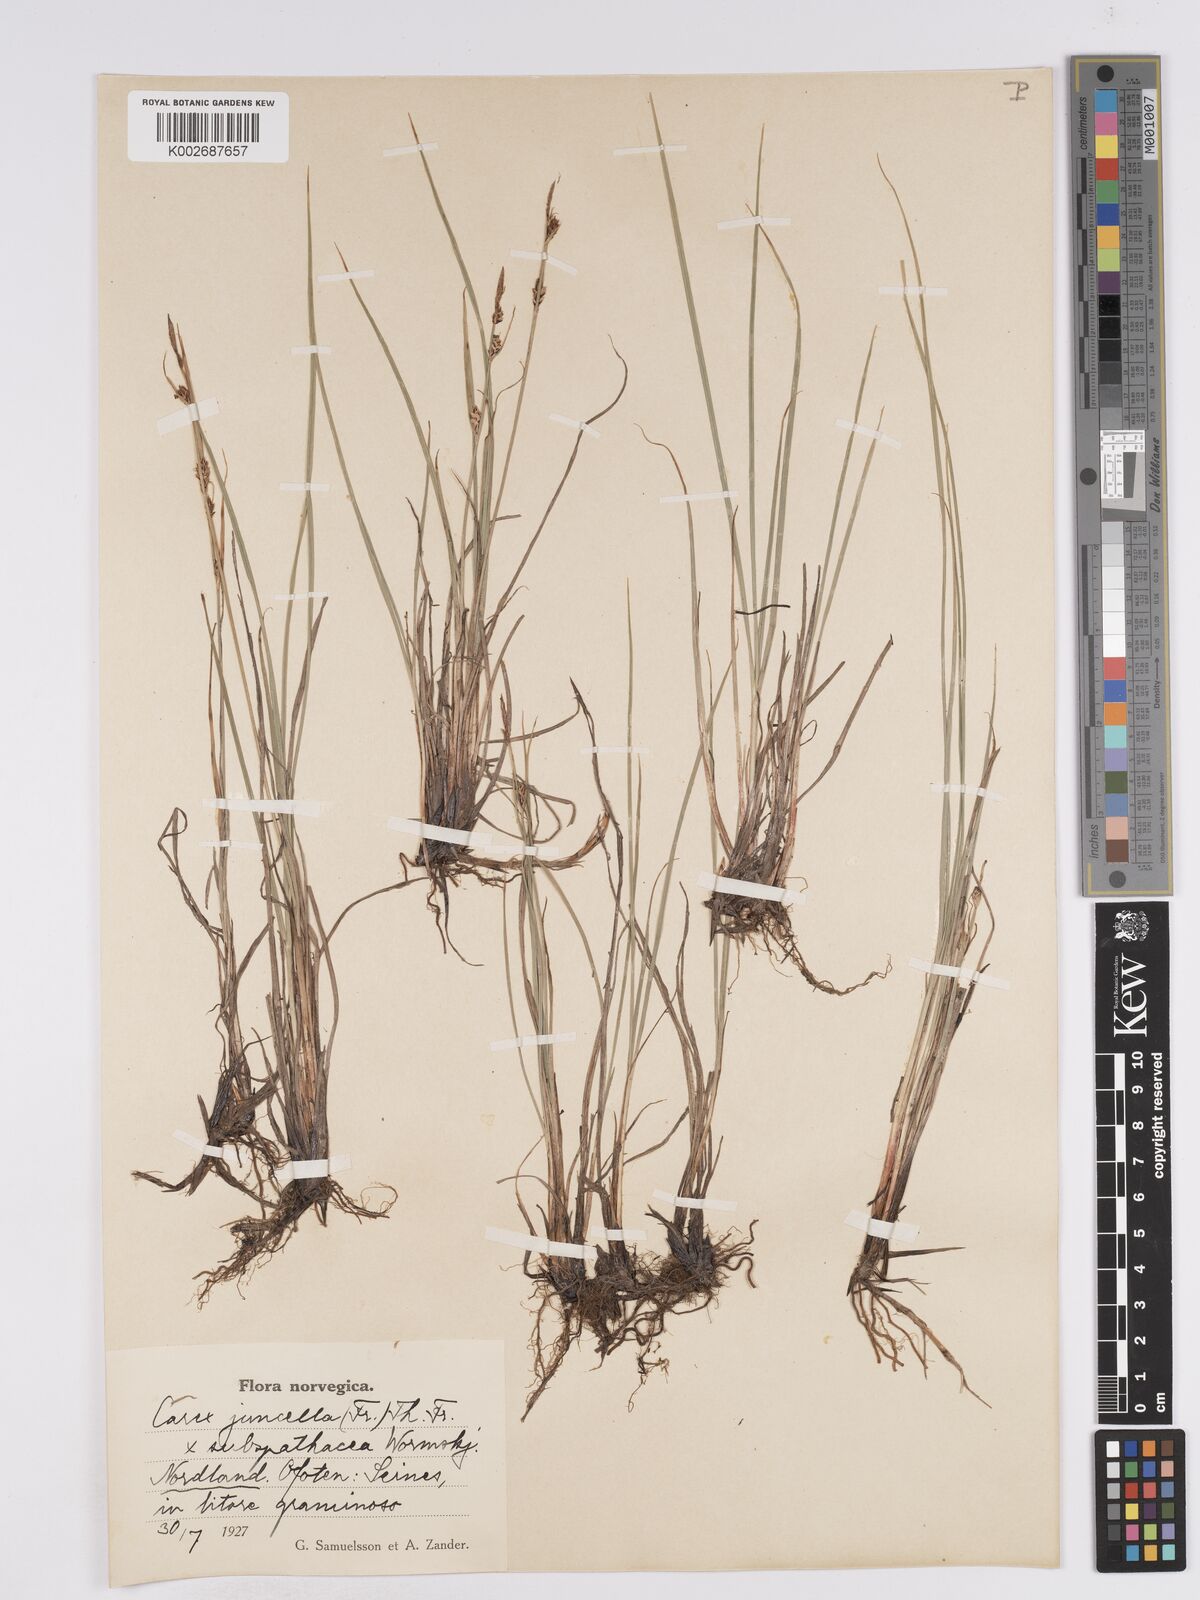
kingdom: Plantae
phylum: Tracheophyta
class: Liliopsida
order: Poales
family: Cyperaceae
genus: Carex
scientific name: Carex
